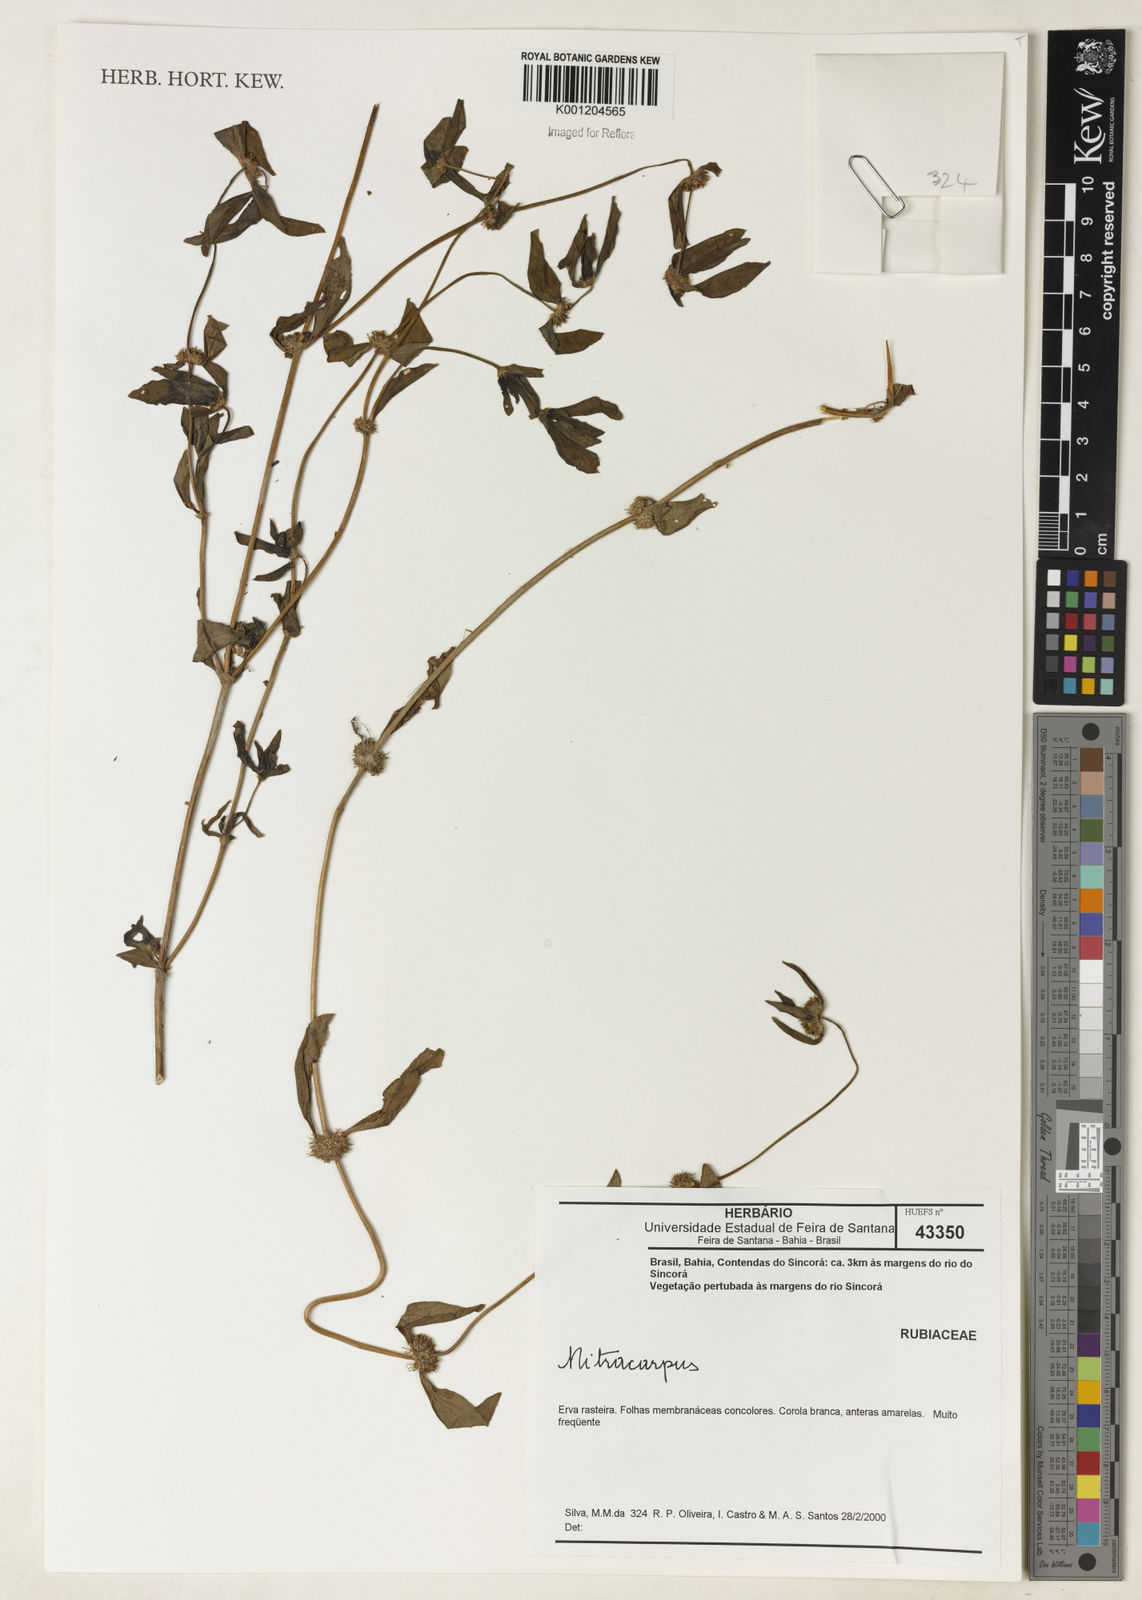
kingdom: Plantae
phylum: Tracheophyta
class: Magnoliopsida
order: Gentianales
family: Rubiaceae
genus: Mitracarpus
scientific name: Mitracarpus
